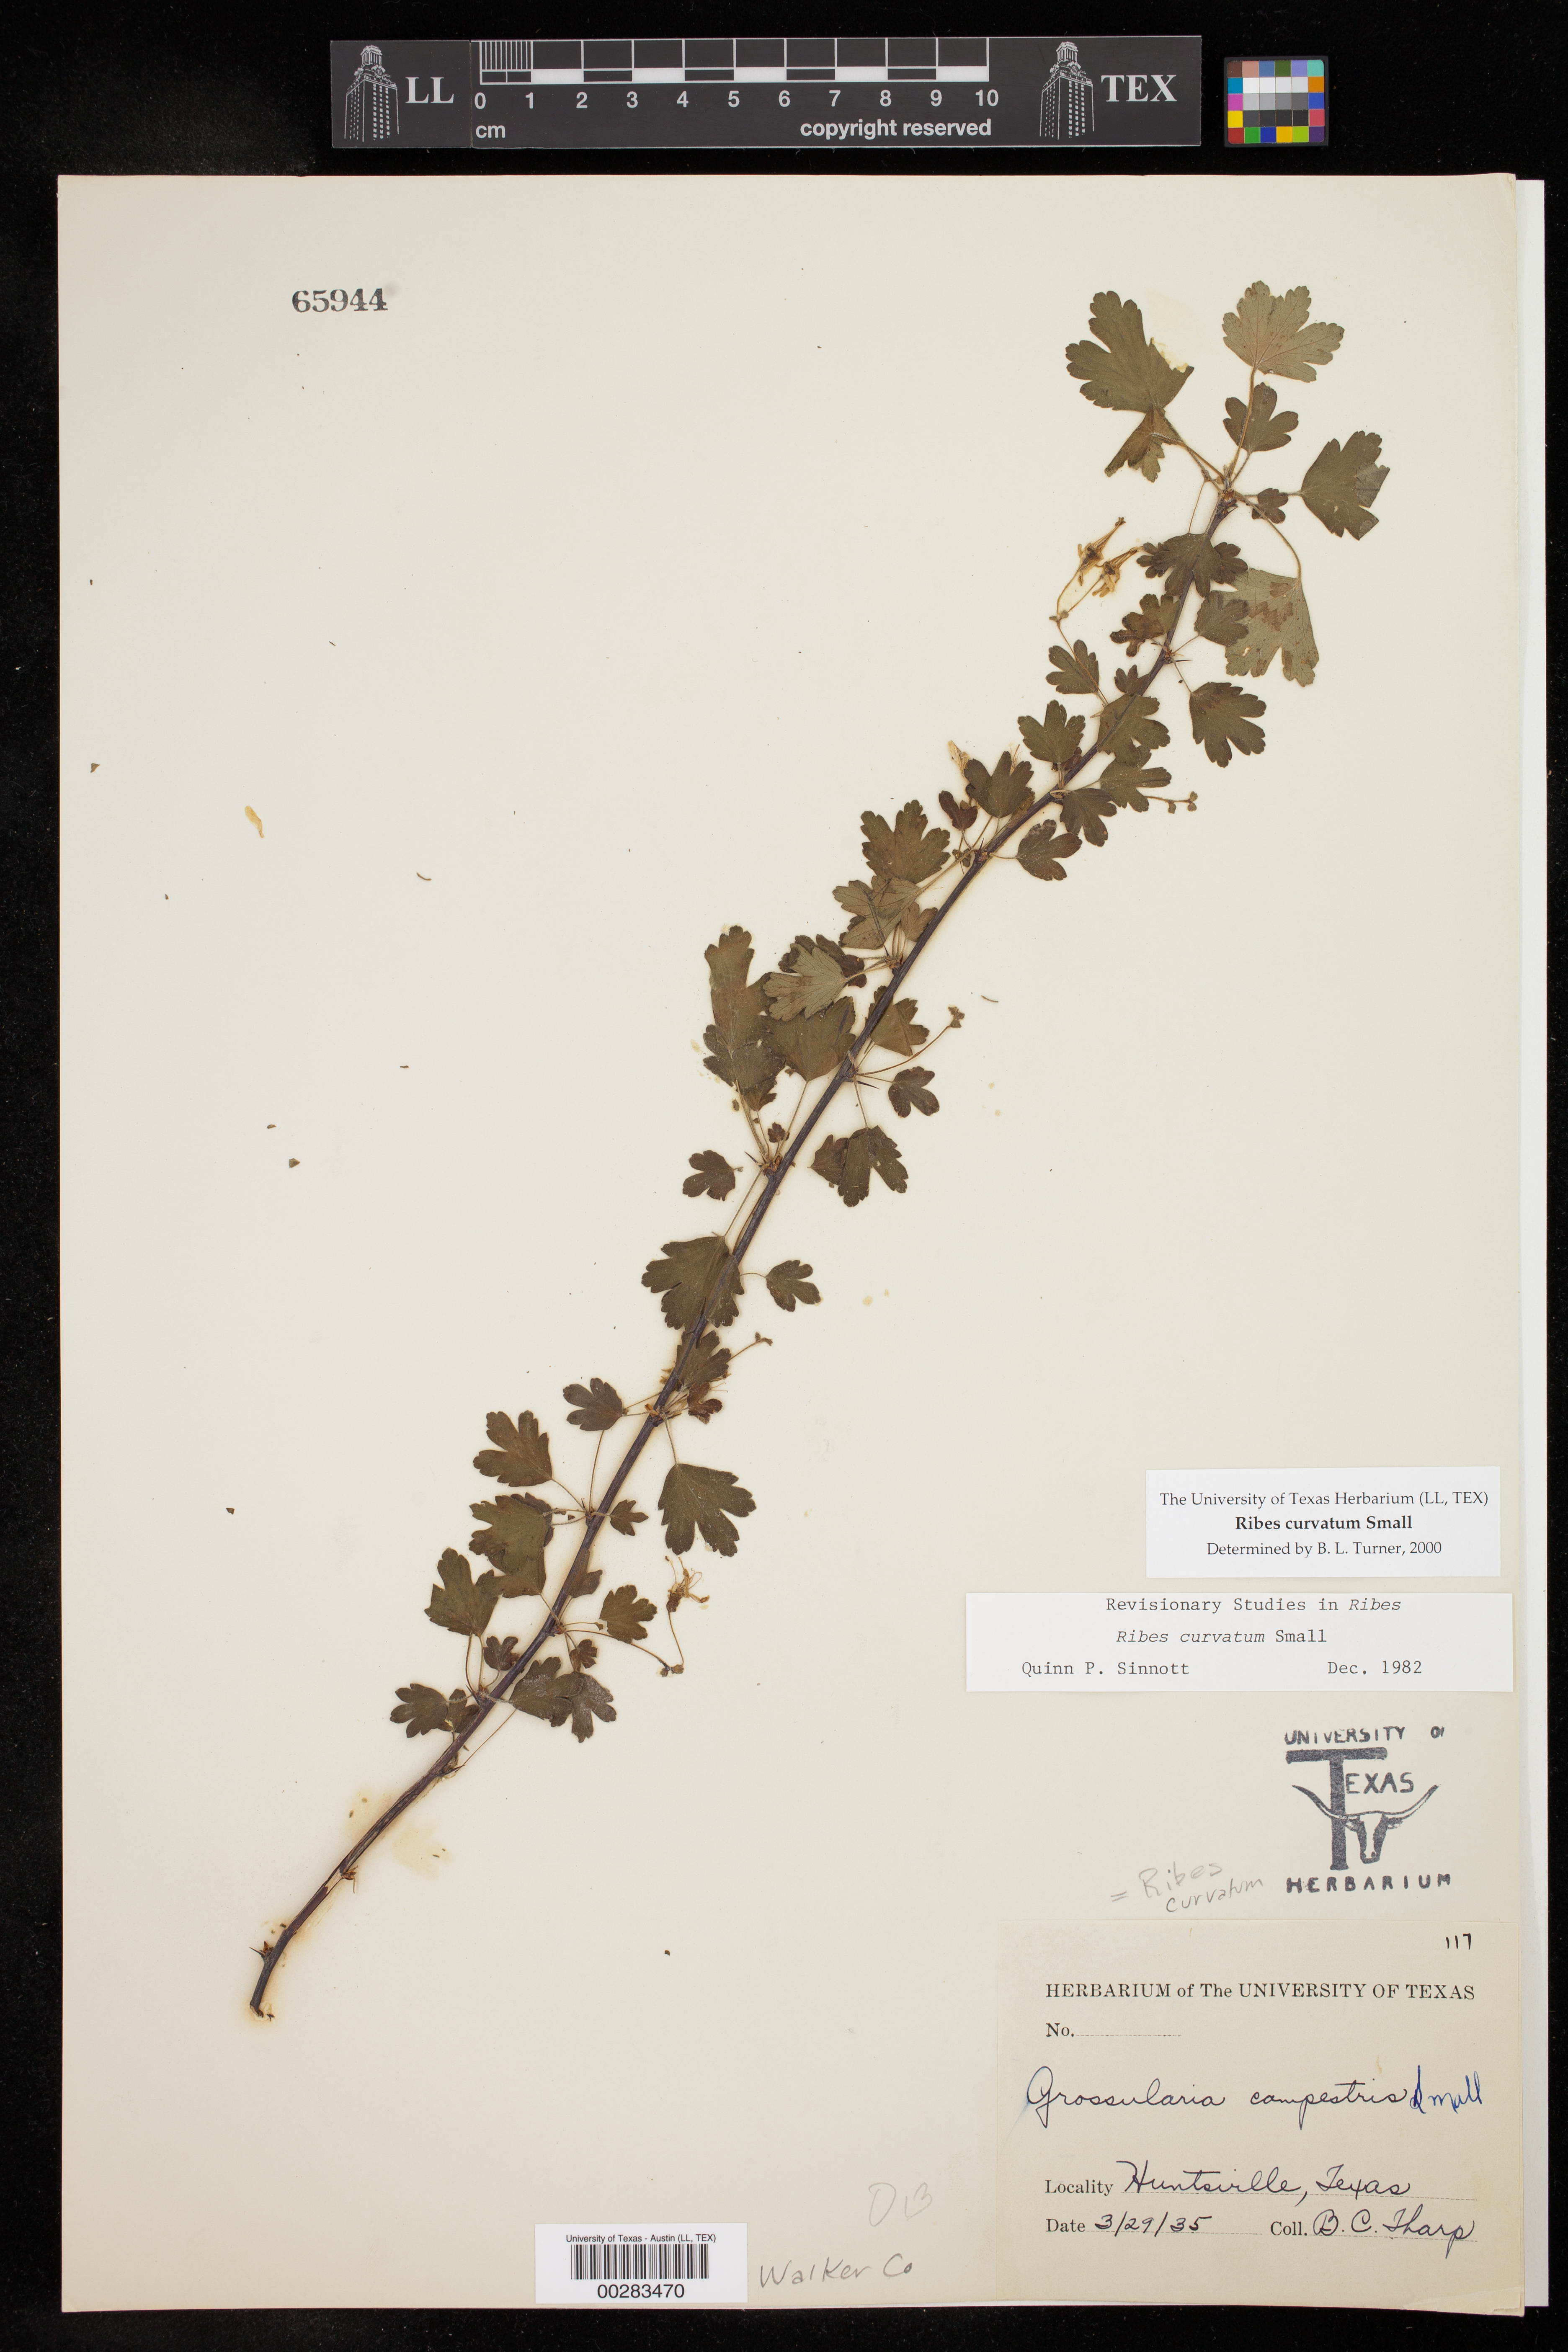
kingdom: Plantae
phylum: Tracheophyta
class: Magnoliopsida
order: Saxifragales
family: Grossulariaceae
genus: Ribes
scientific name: Ribes curvatum
